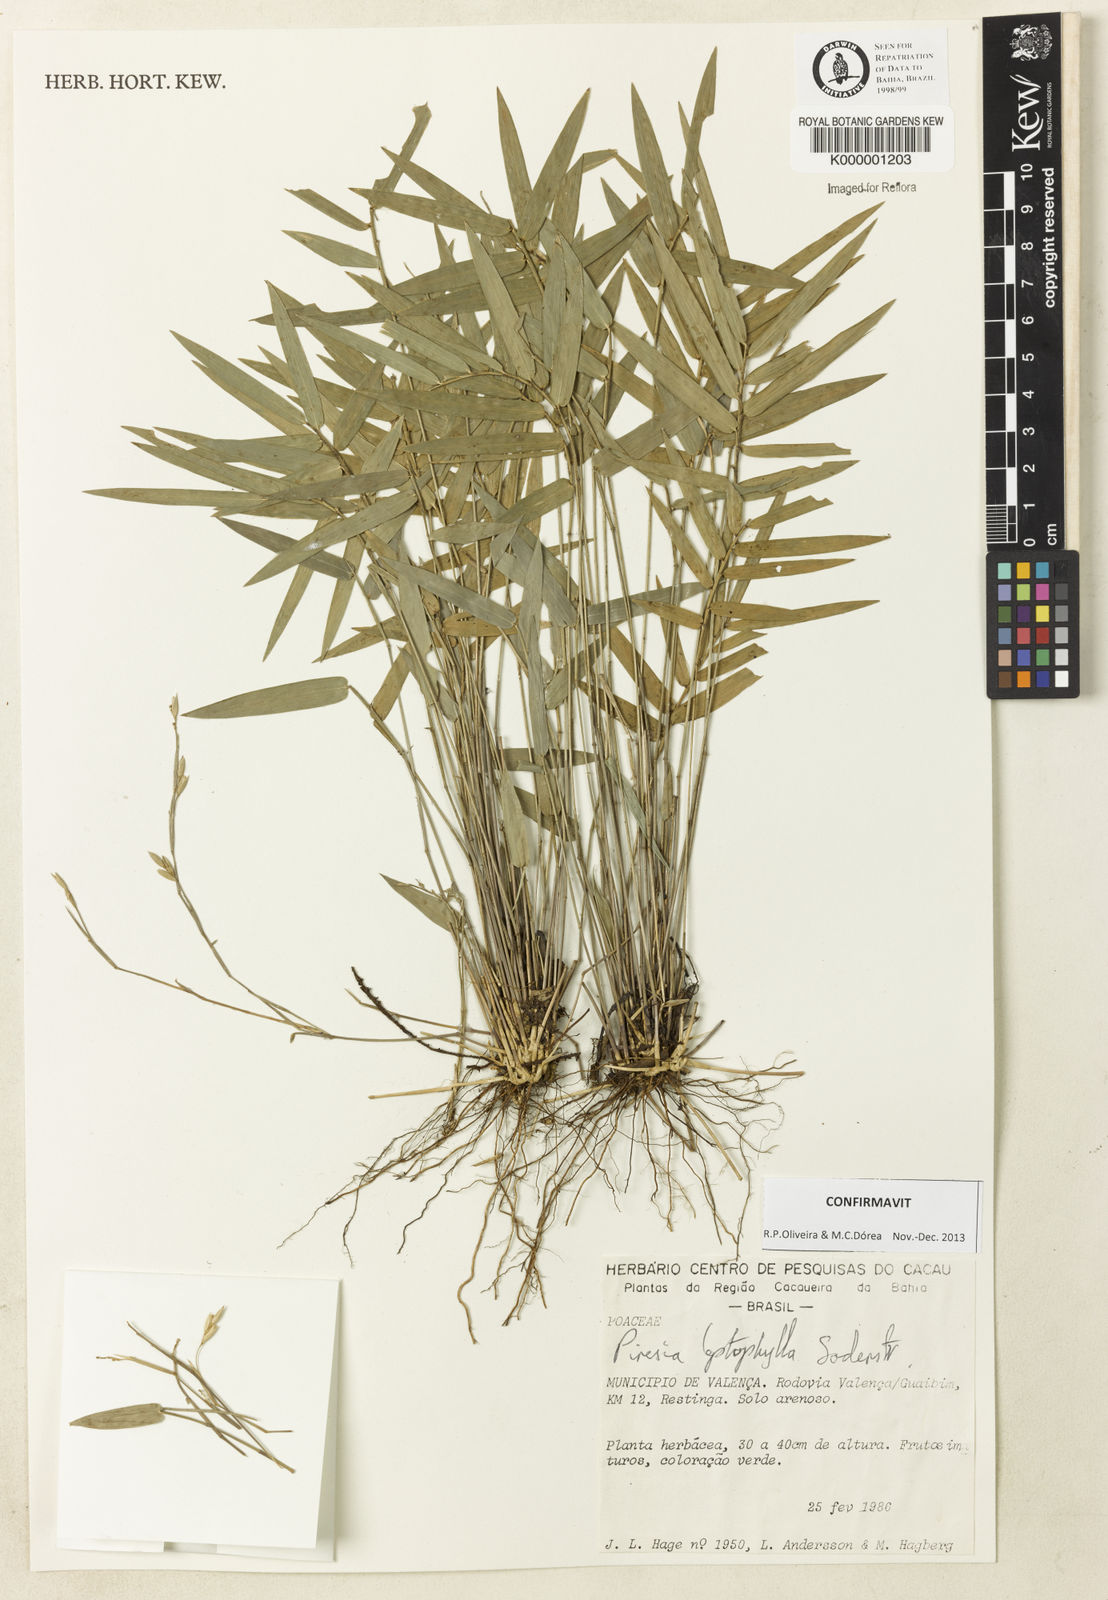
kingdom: Plantae
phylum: Tracheophyta
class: Liliopsida
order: Poales
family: Poaceae
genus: Piresia
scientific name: Piresia leptophylla
